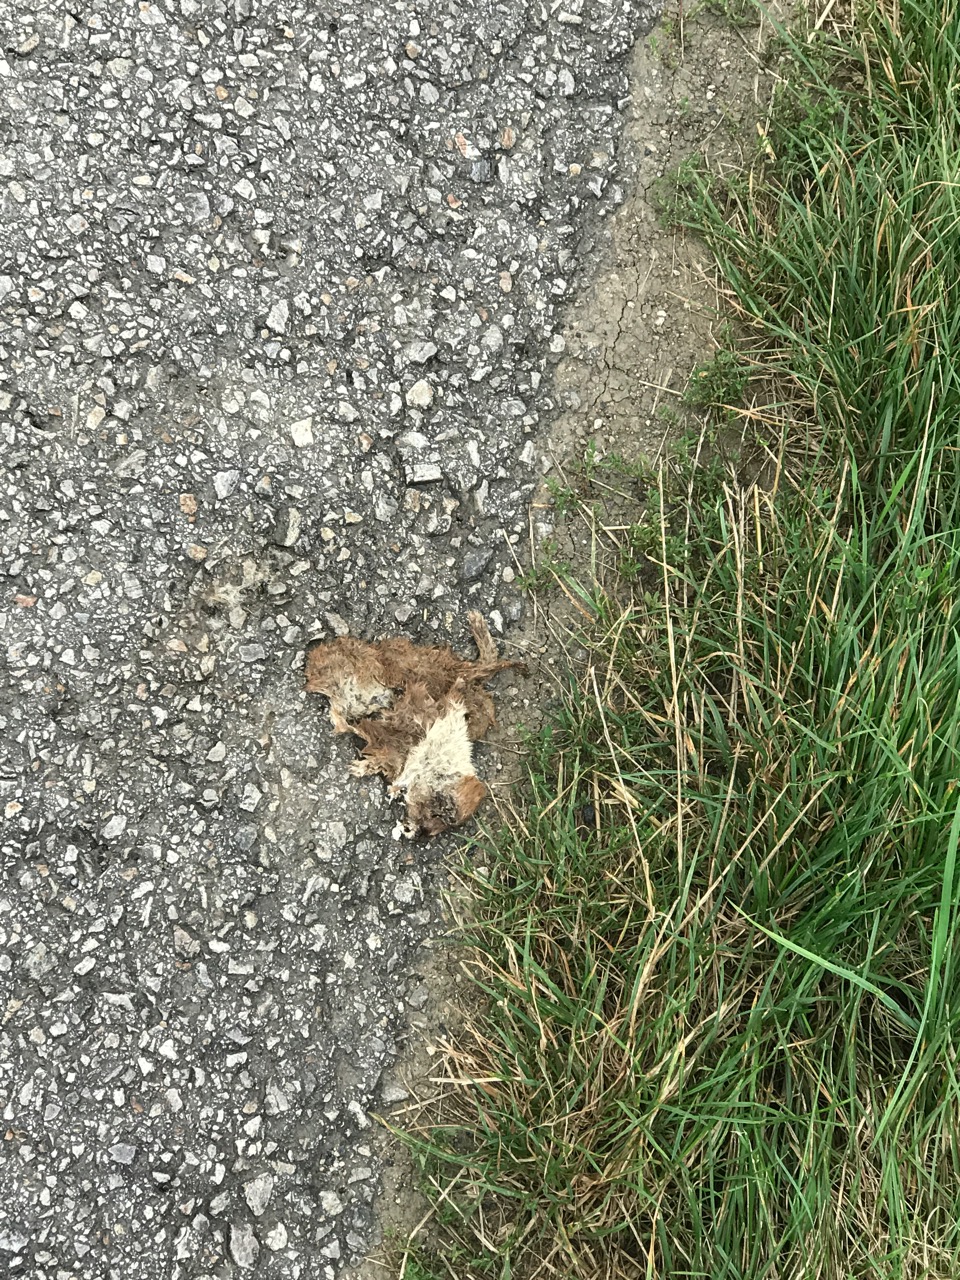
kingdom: Animalia
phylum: Chordata
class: Mammalia
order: Carnivora
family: Mustelidae
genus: Mustela
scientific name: Mustela nivalis
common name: Least weasel
